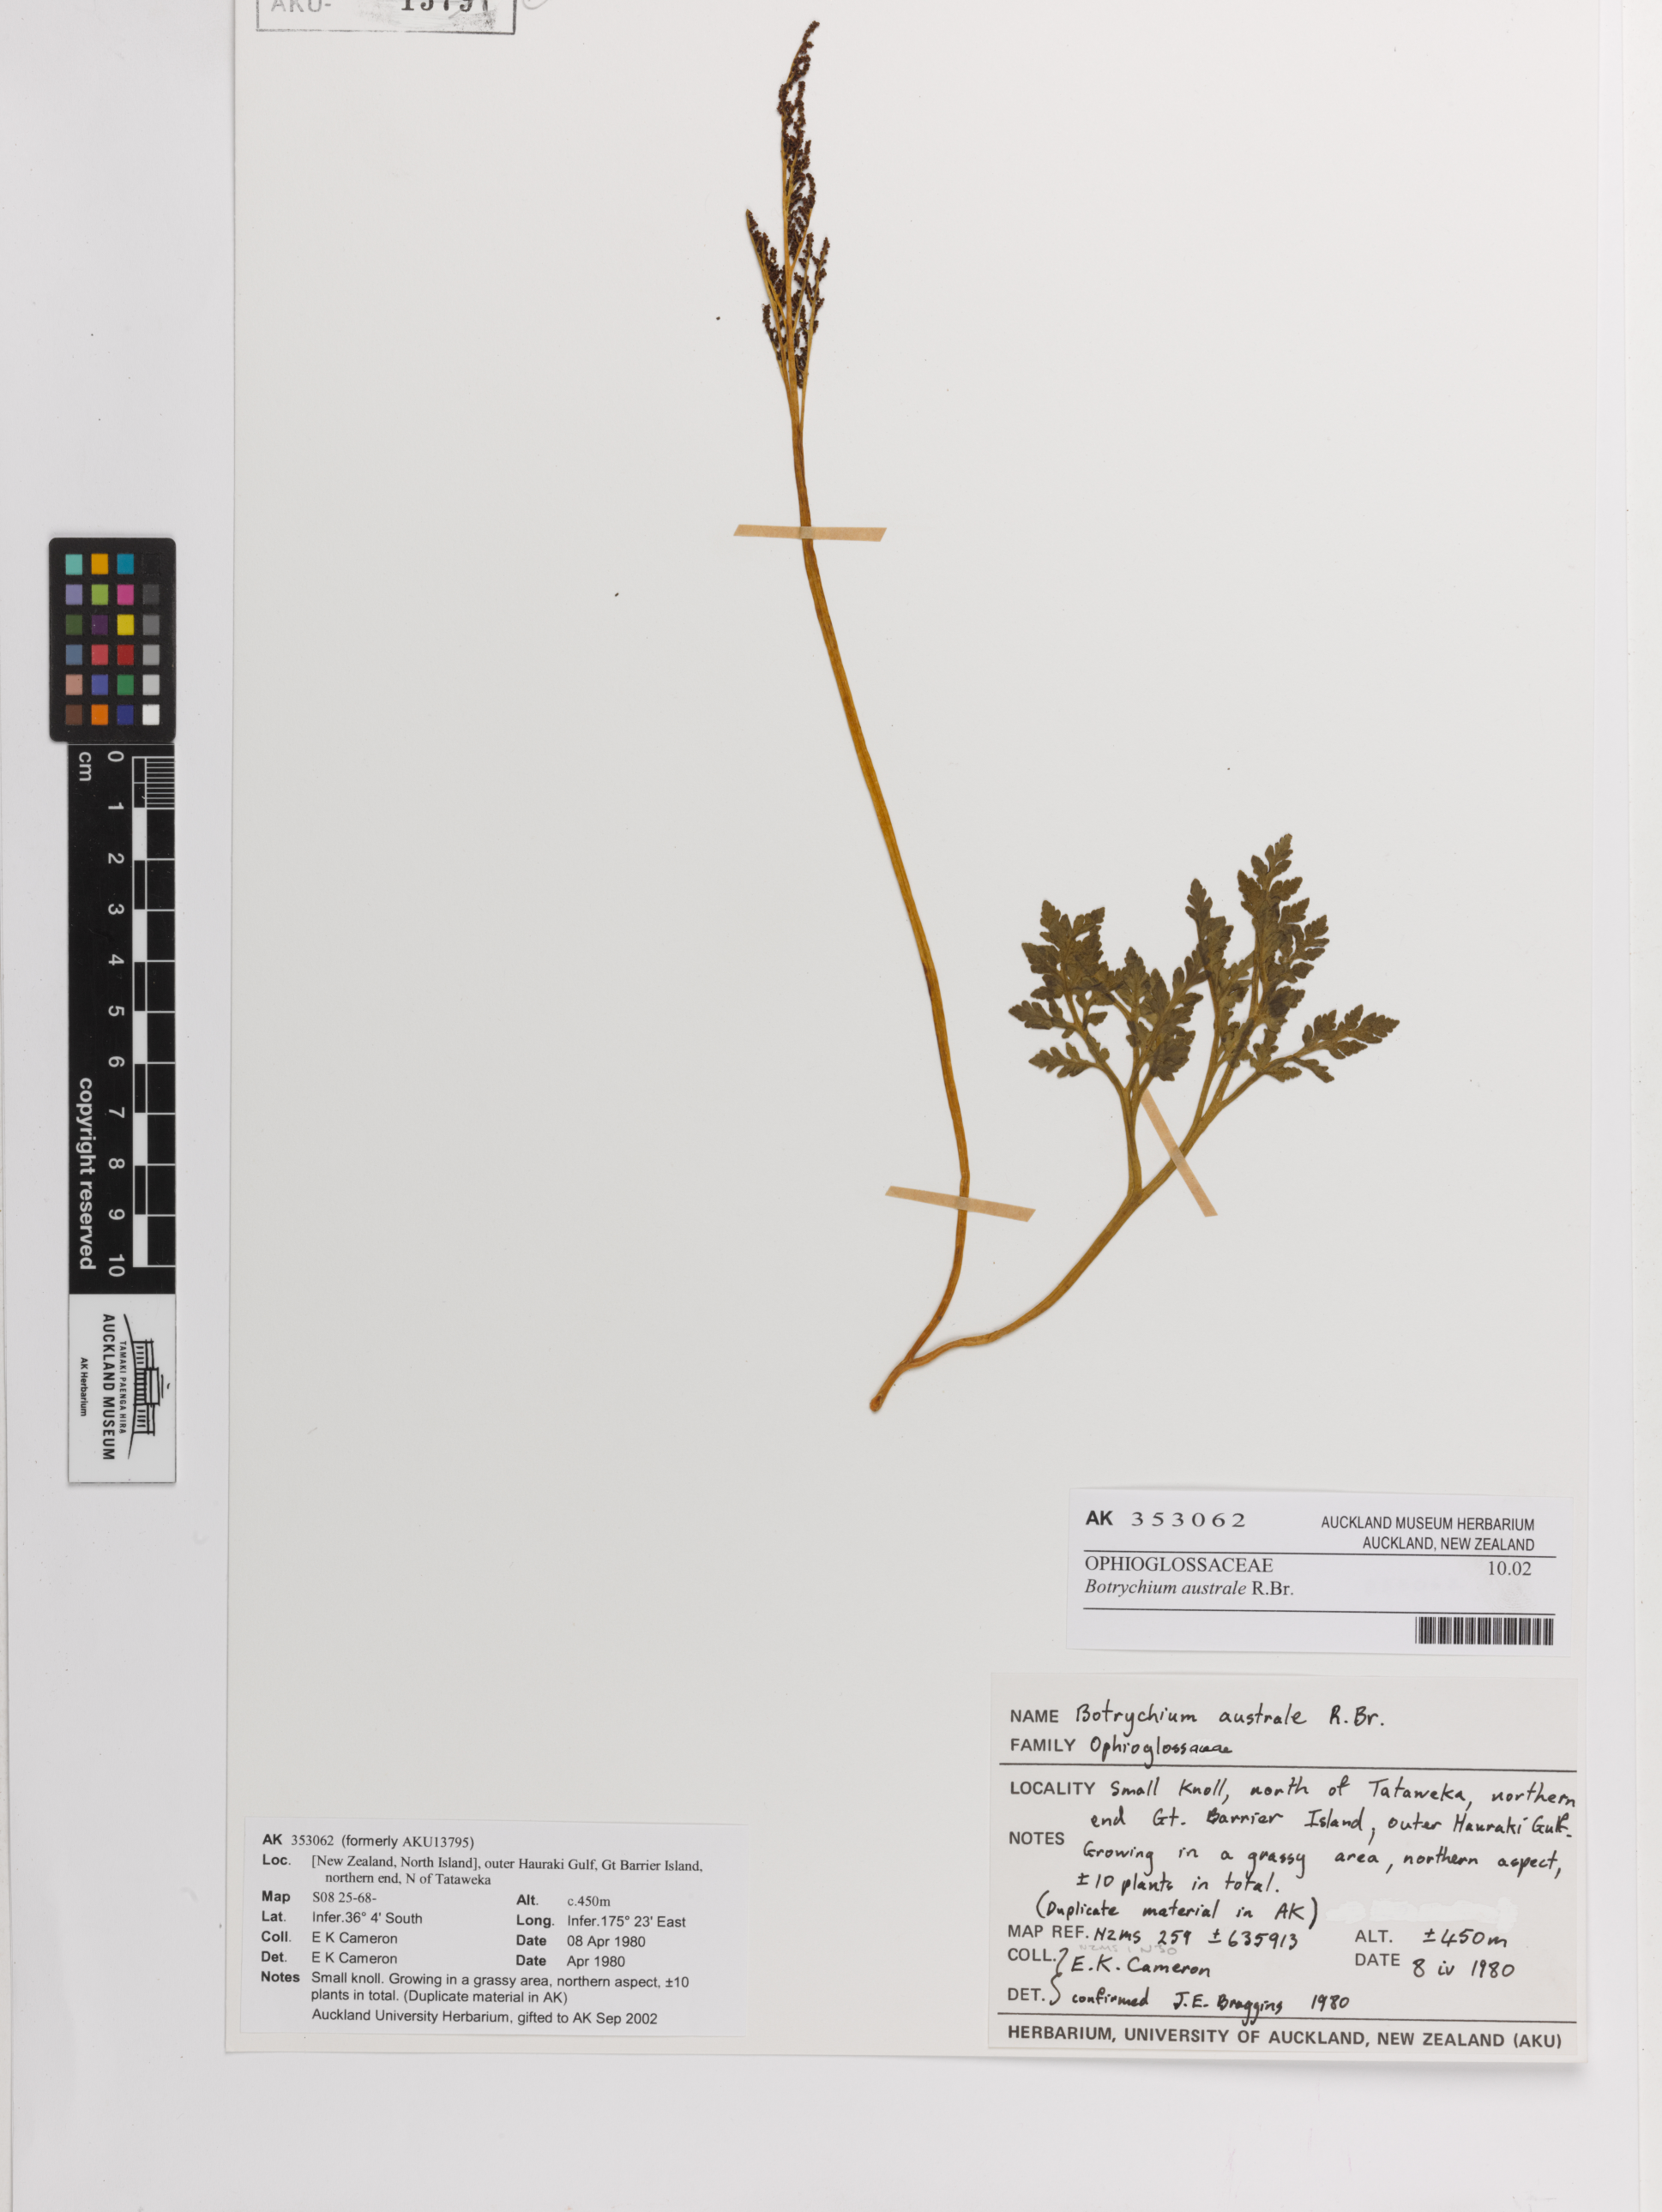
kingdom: Plantae
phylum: Tracheophyta
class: Polypodiopsida
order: Ophioglossales
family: Ophioglossaceae
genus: Sceptridium
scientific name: Sceptridium australe
